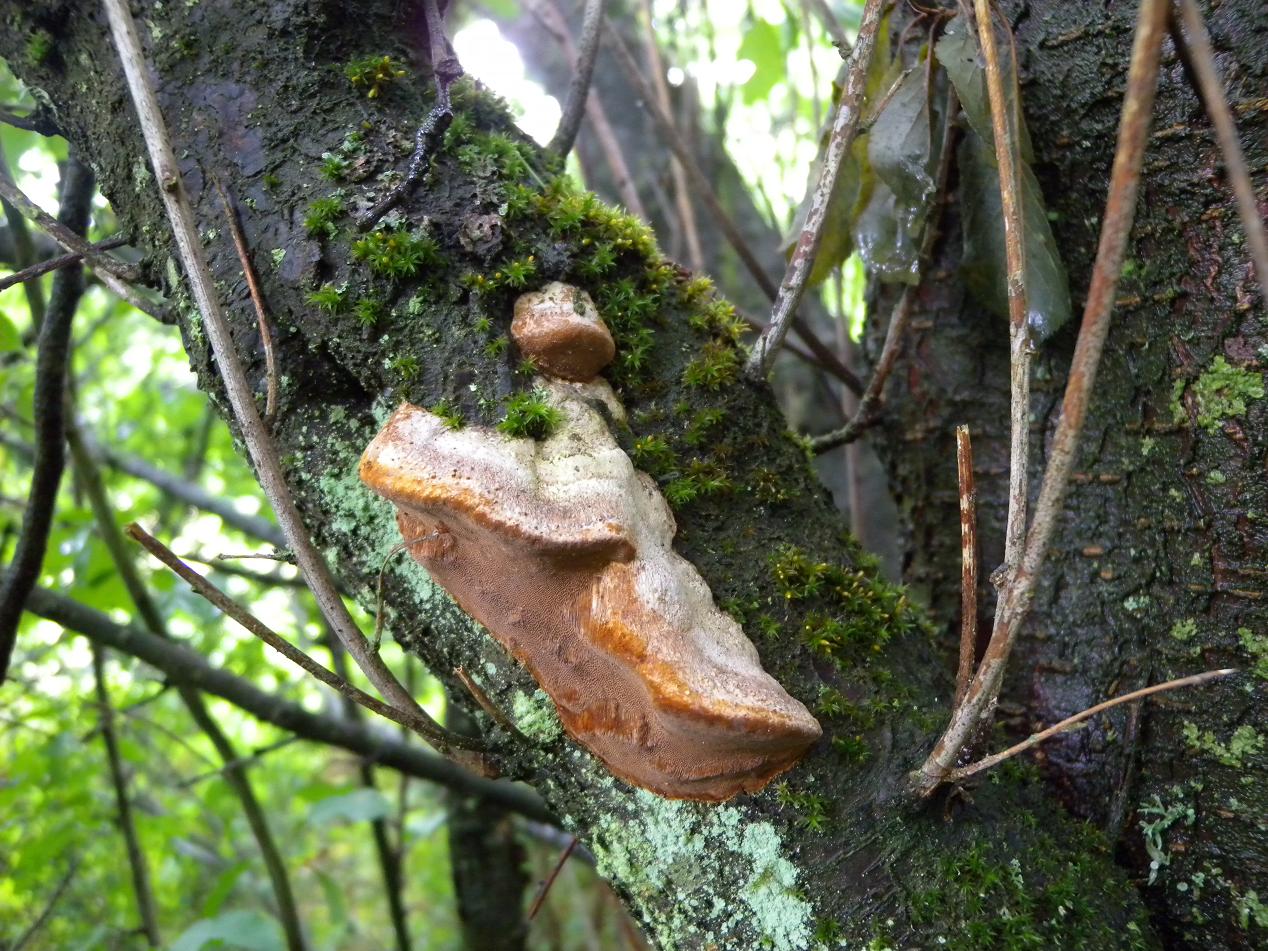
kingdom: Fungi
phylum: Basidiomycota
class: Agaricomycetes
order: Hymenochaetales
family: Hymenochaetaceae
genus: Phellinus
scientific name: Phellinus pomaceus
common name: blomme-ildporesvamp
